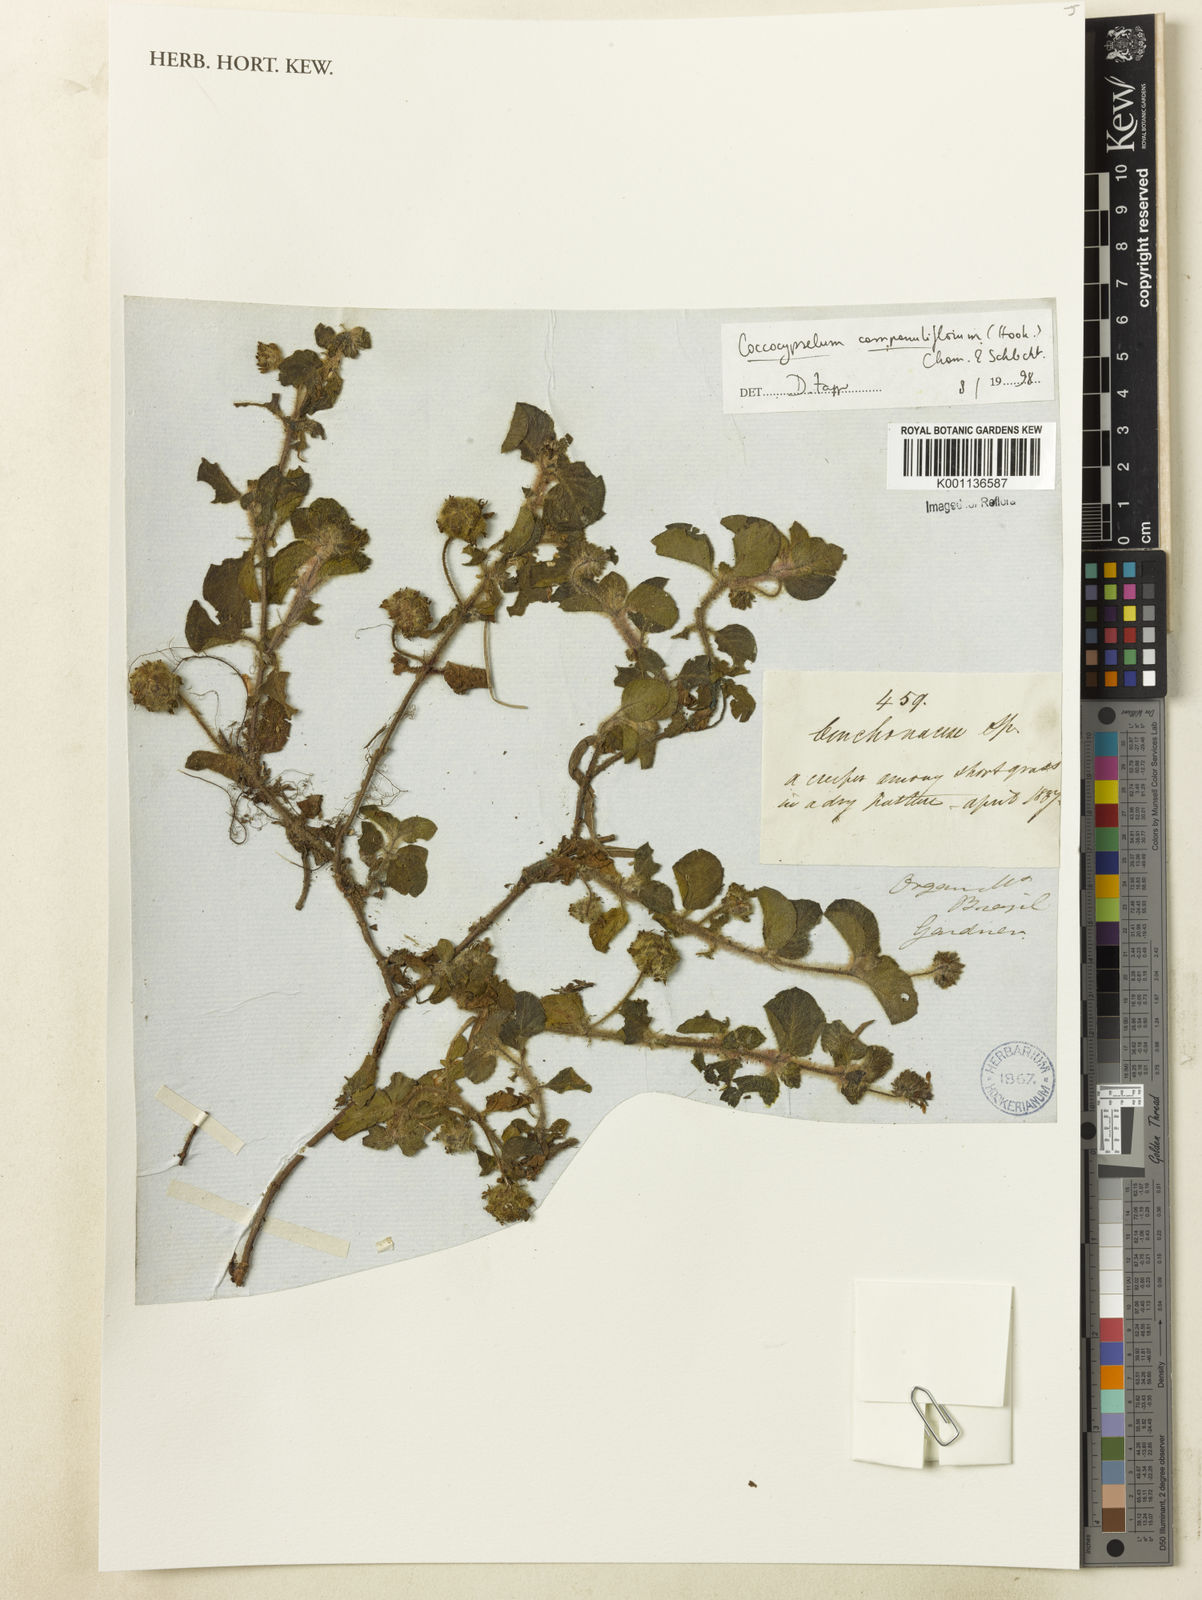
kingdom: Plantae
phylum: Tracheophyta
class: Magnoliopsida
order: Gentianales
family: Rubiaceae
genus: Coccocypselum
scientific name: Coccocypselum capitatum
